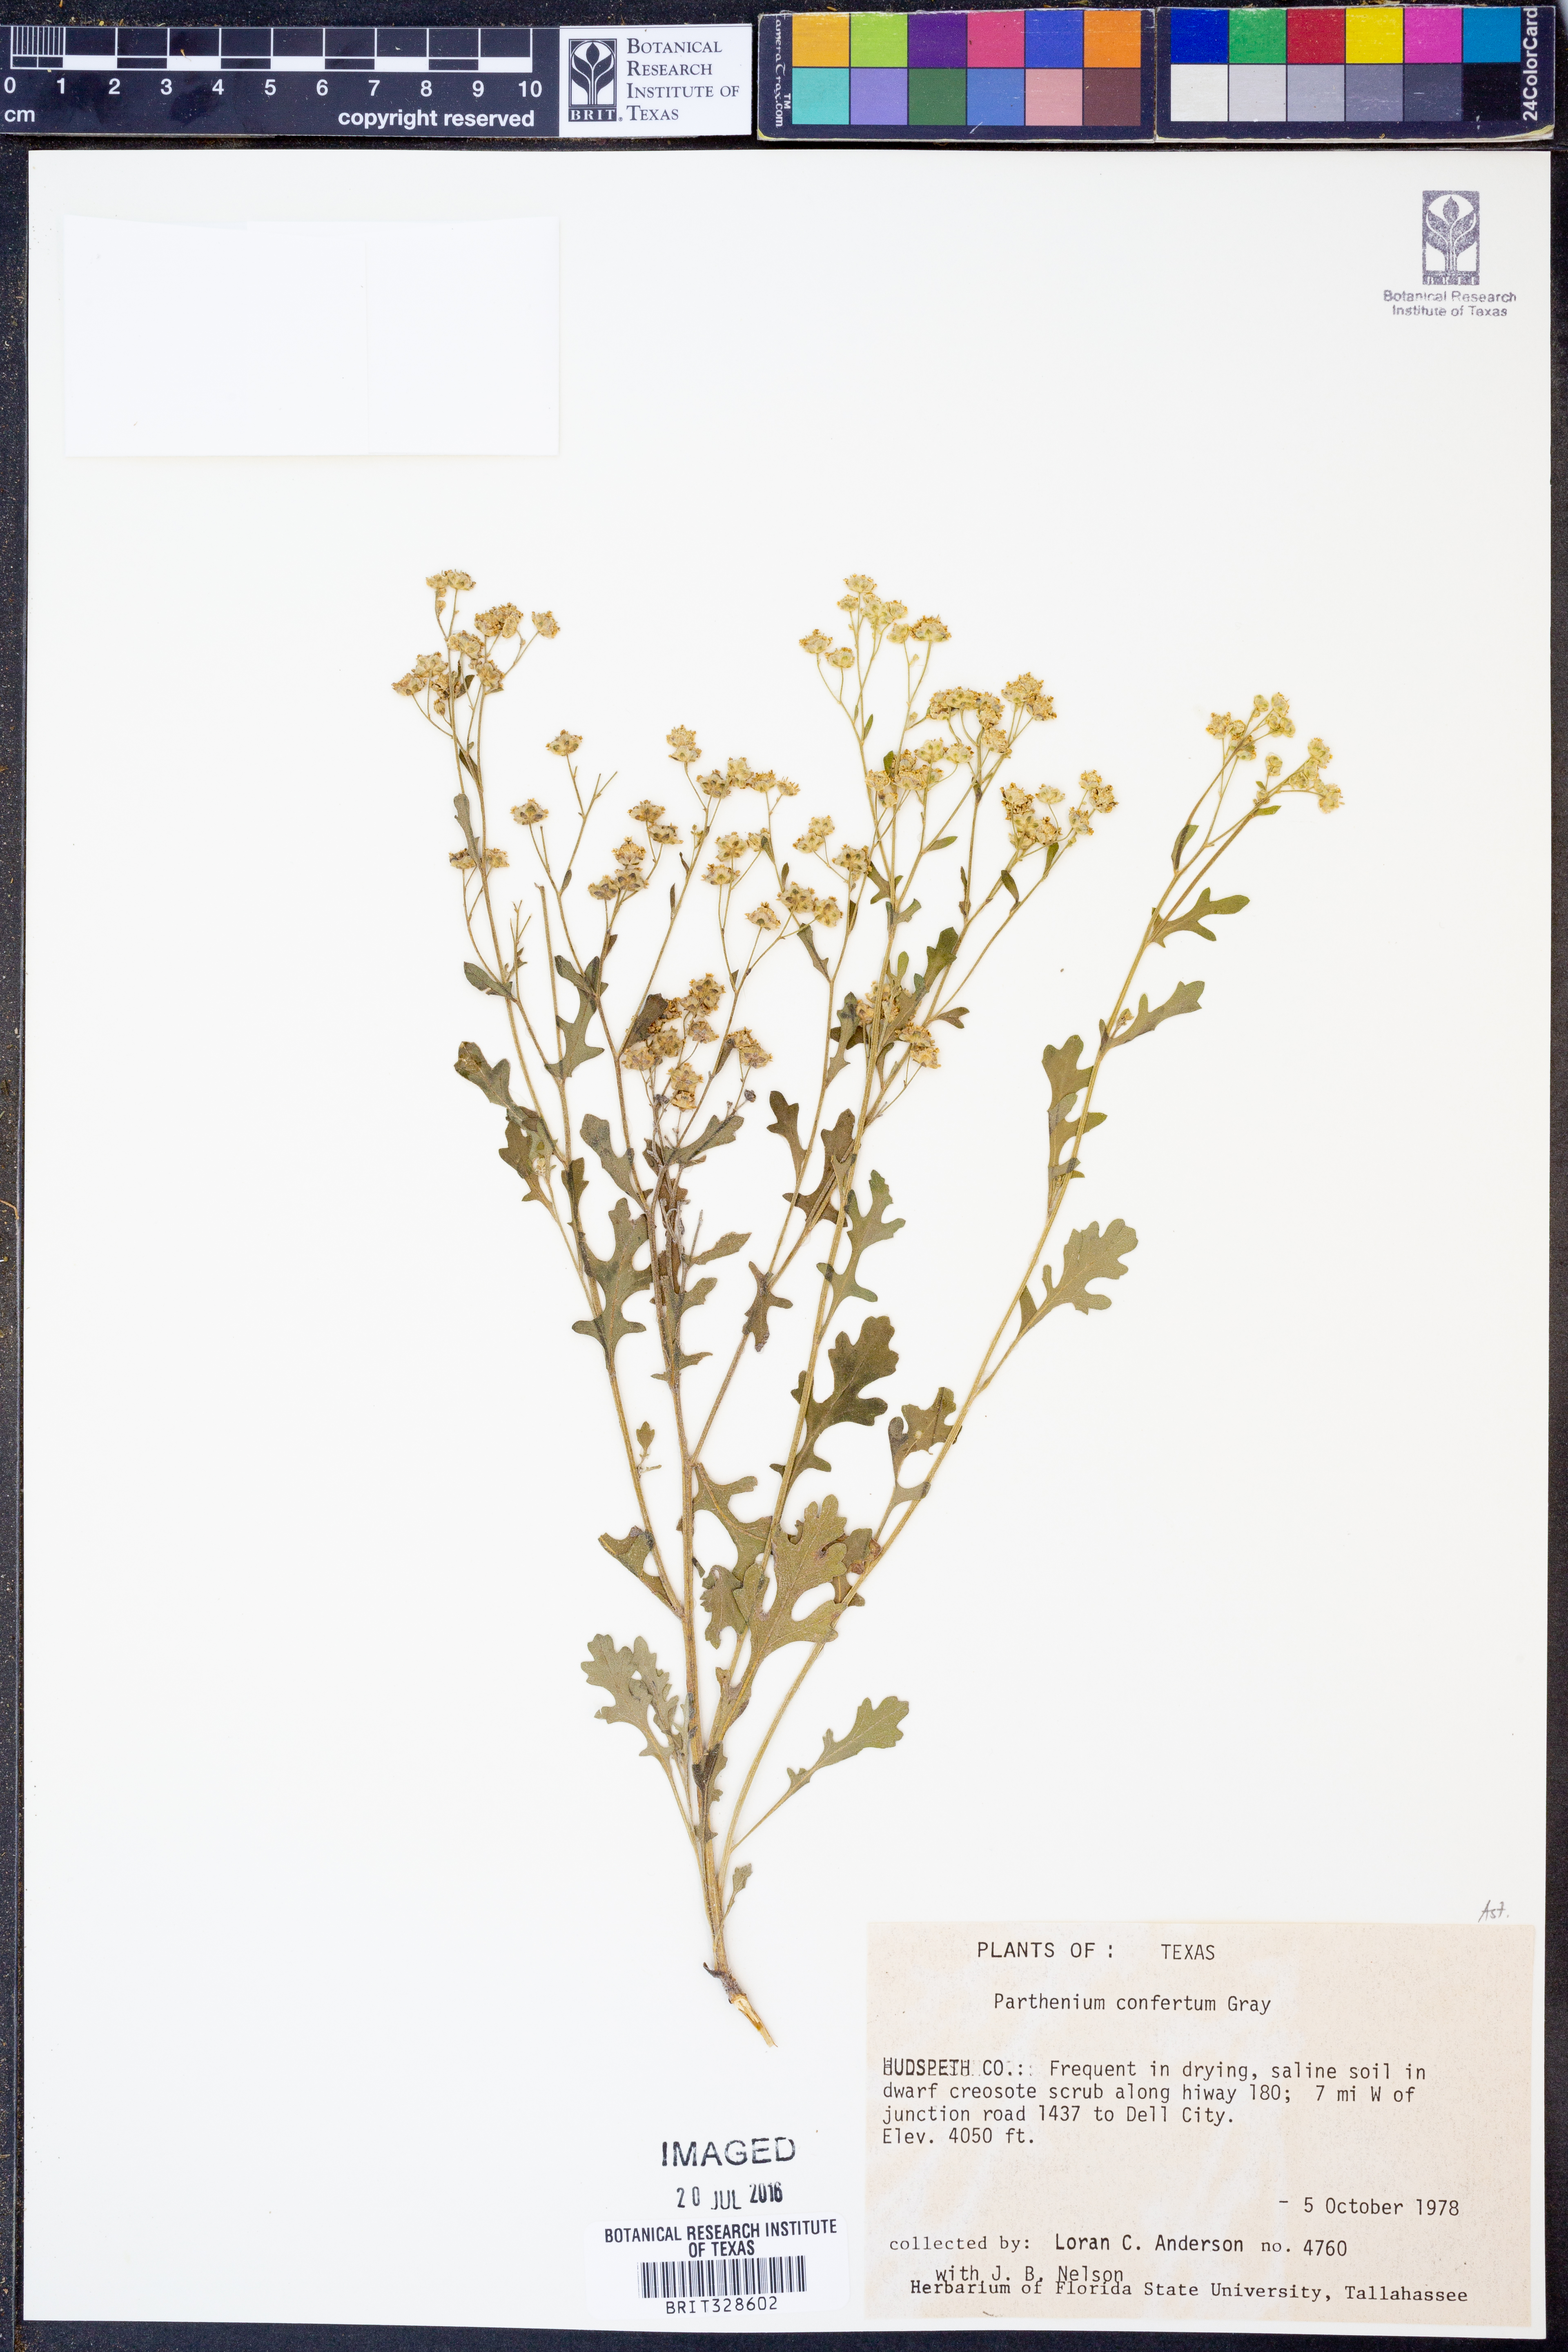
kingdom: Plantae
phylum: Tracheophyta
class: Magnoliopsida
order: Asterales
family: Asteraceae
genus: Parthenium
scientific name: Parthenium confertum
